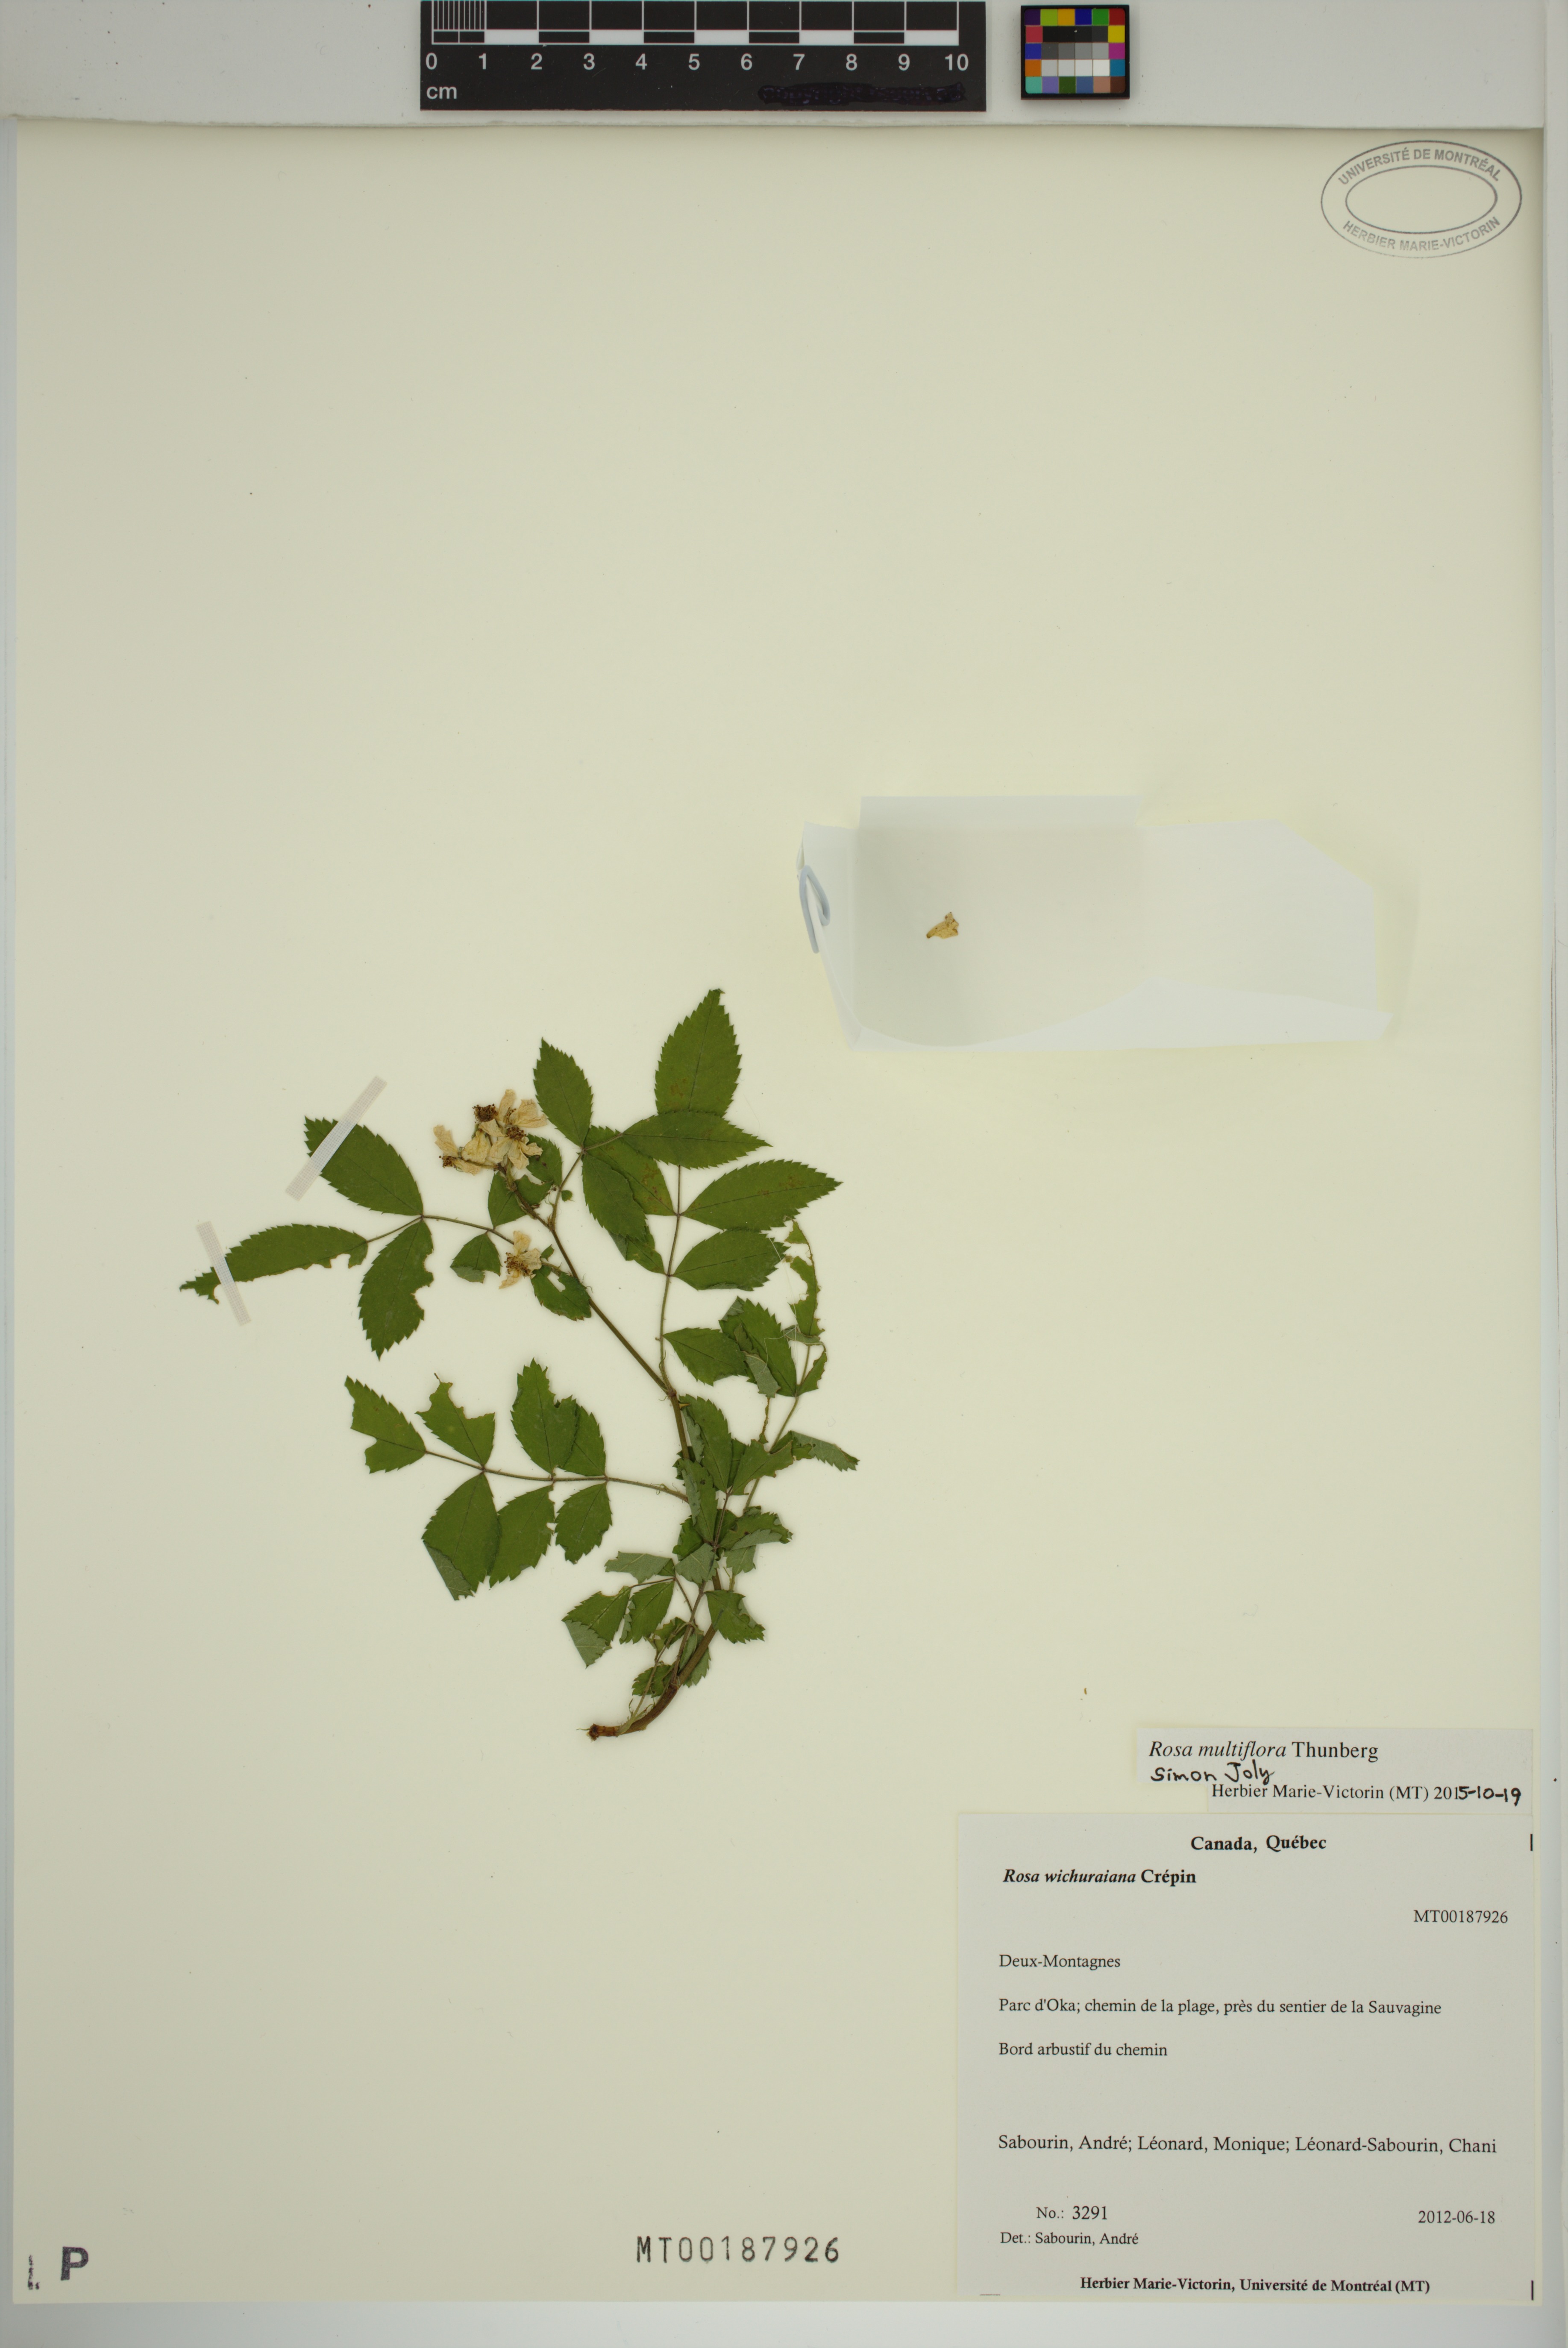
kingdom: Plantae
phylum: Tracheophyta
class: Magnoliopsida
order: Rosales
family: Rosaceae
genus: Rosa
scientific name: Rosa multiflora
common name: Multiflora rose
